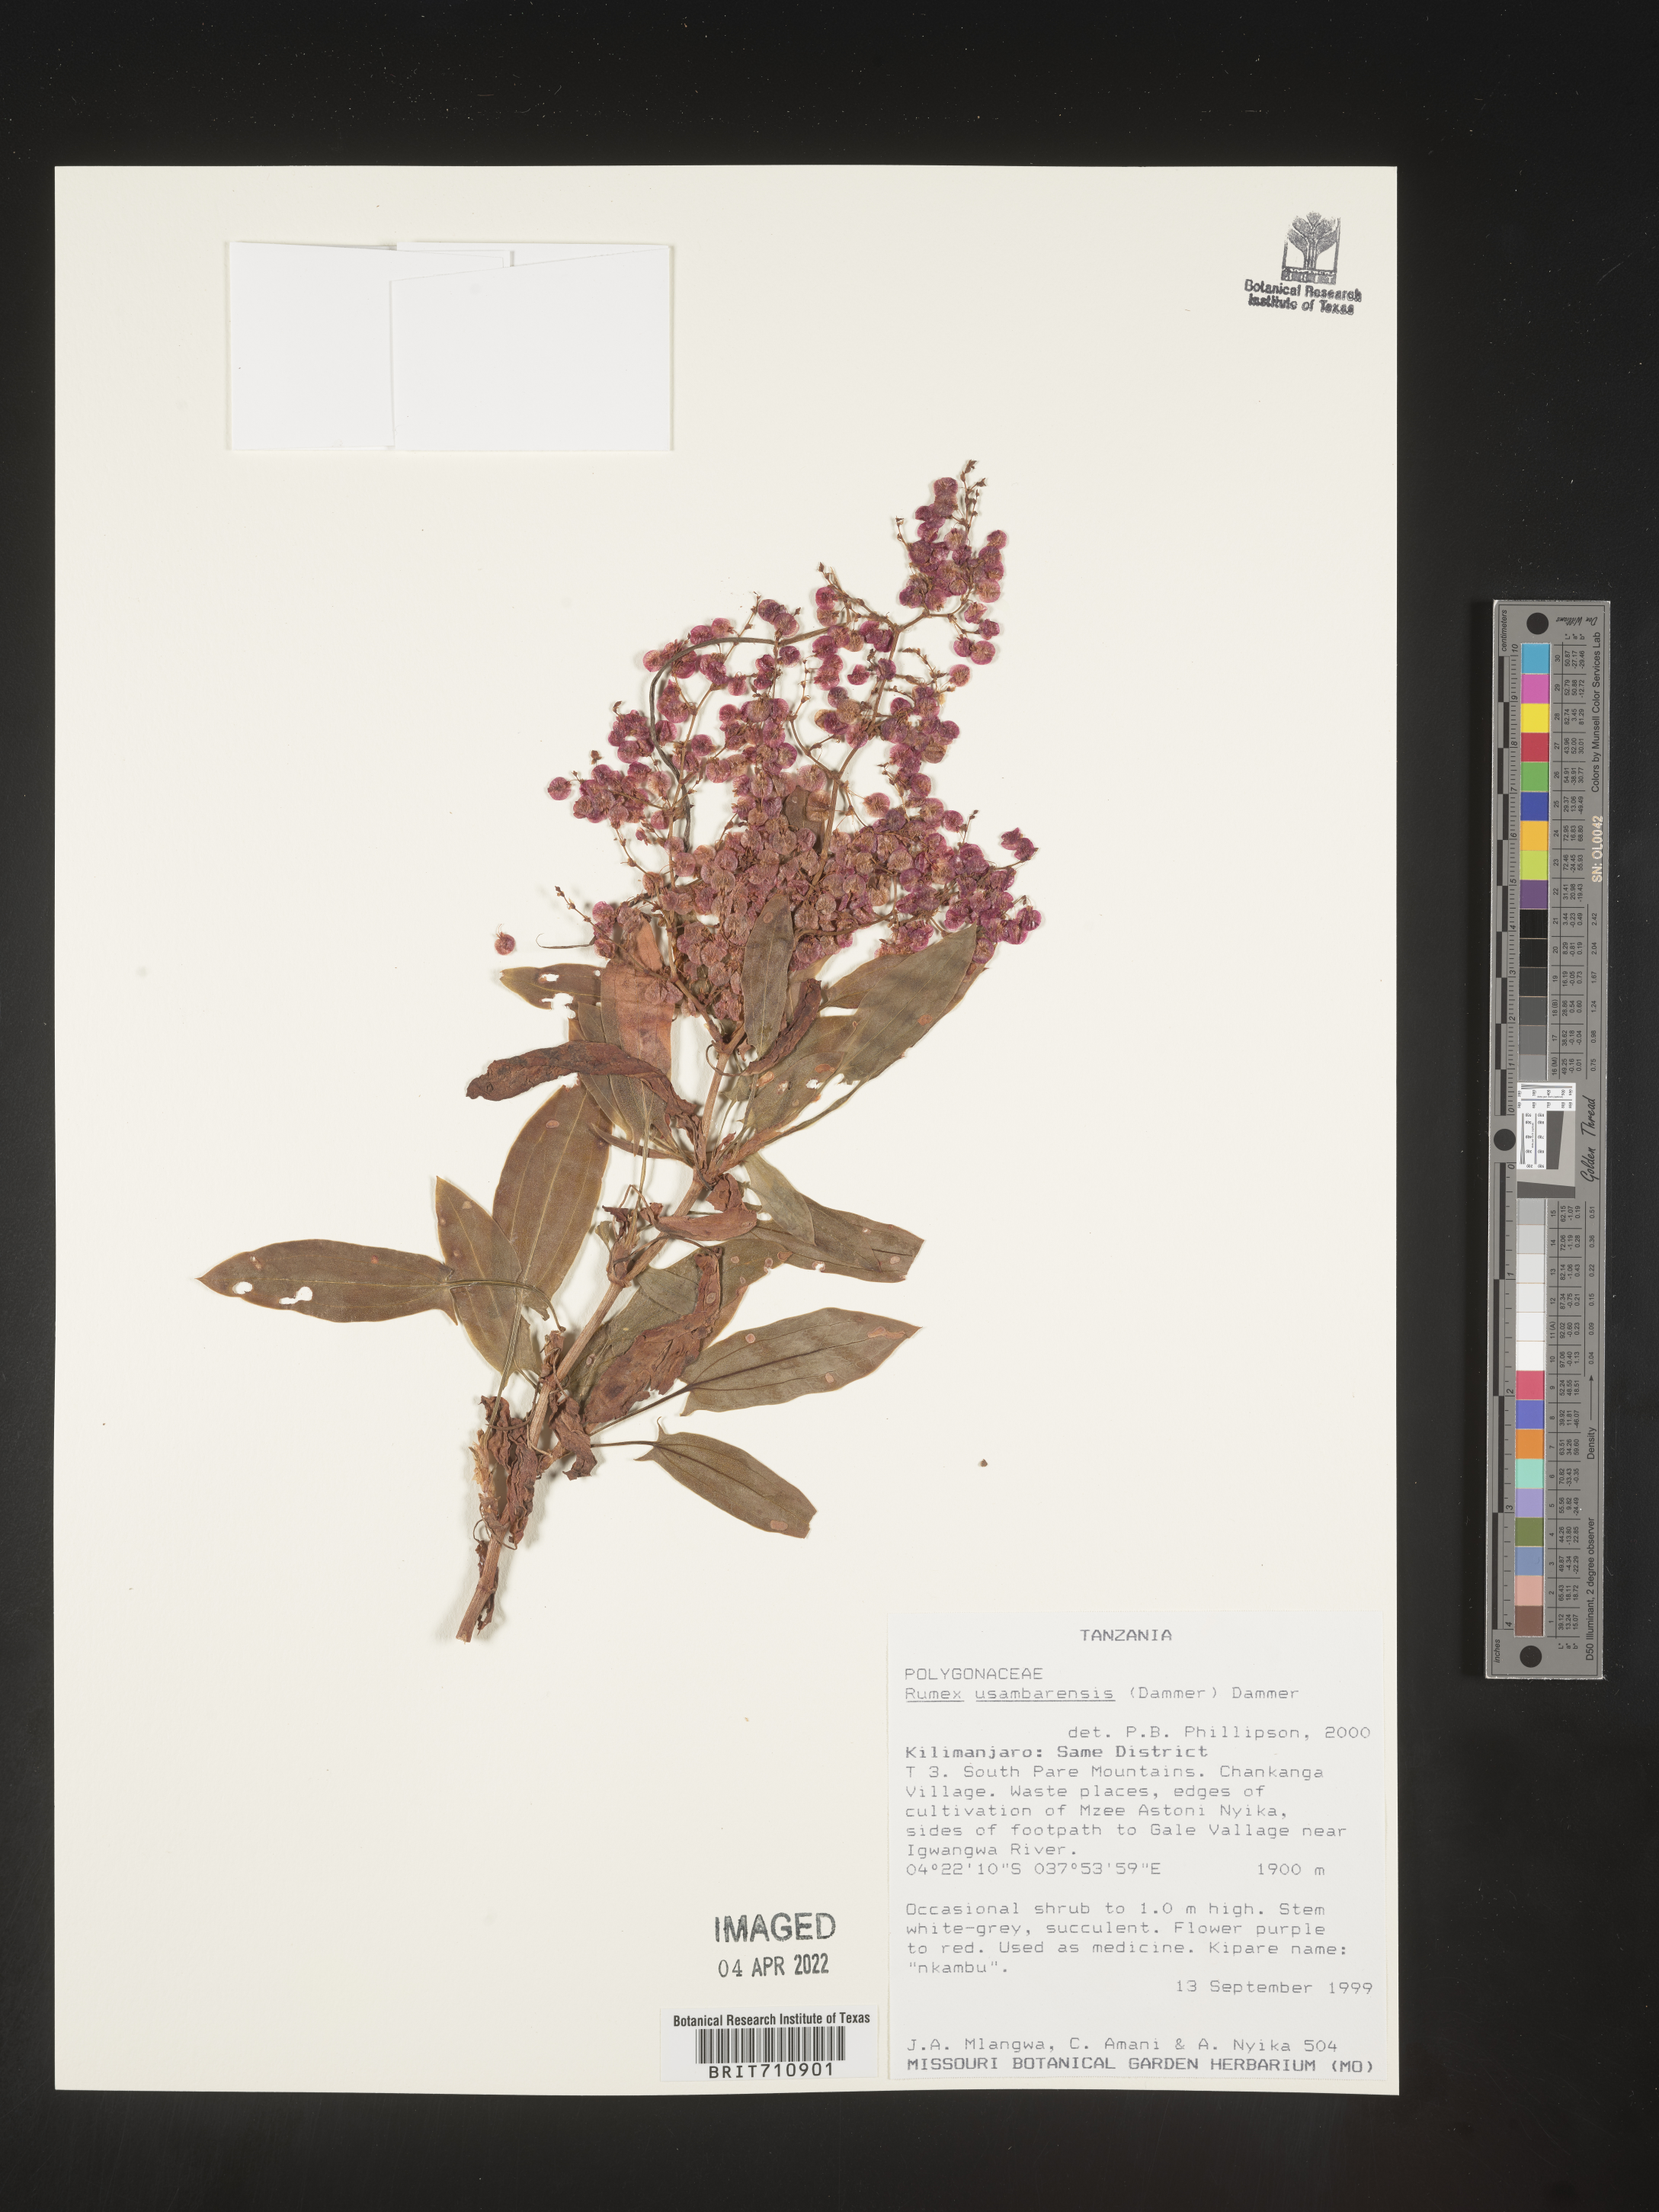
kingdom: Plantae
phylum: Tracheophyta
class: Magnoliopsida
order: Caryophyllales
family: Polygonaceae
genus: Rumex
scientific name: Rumex
